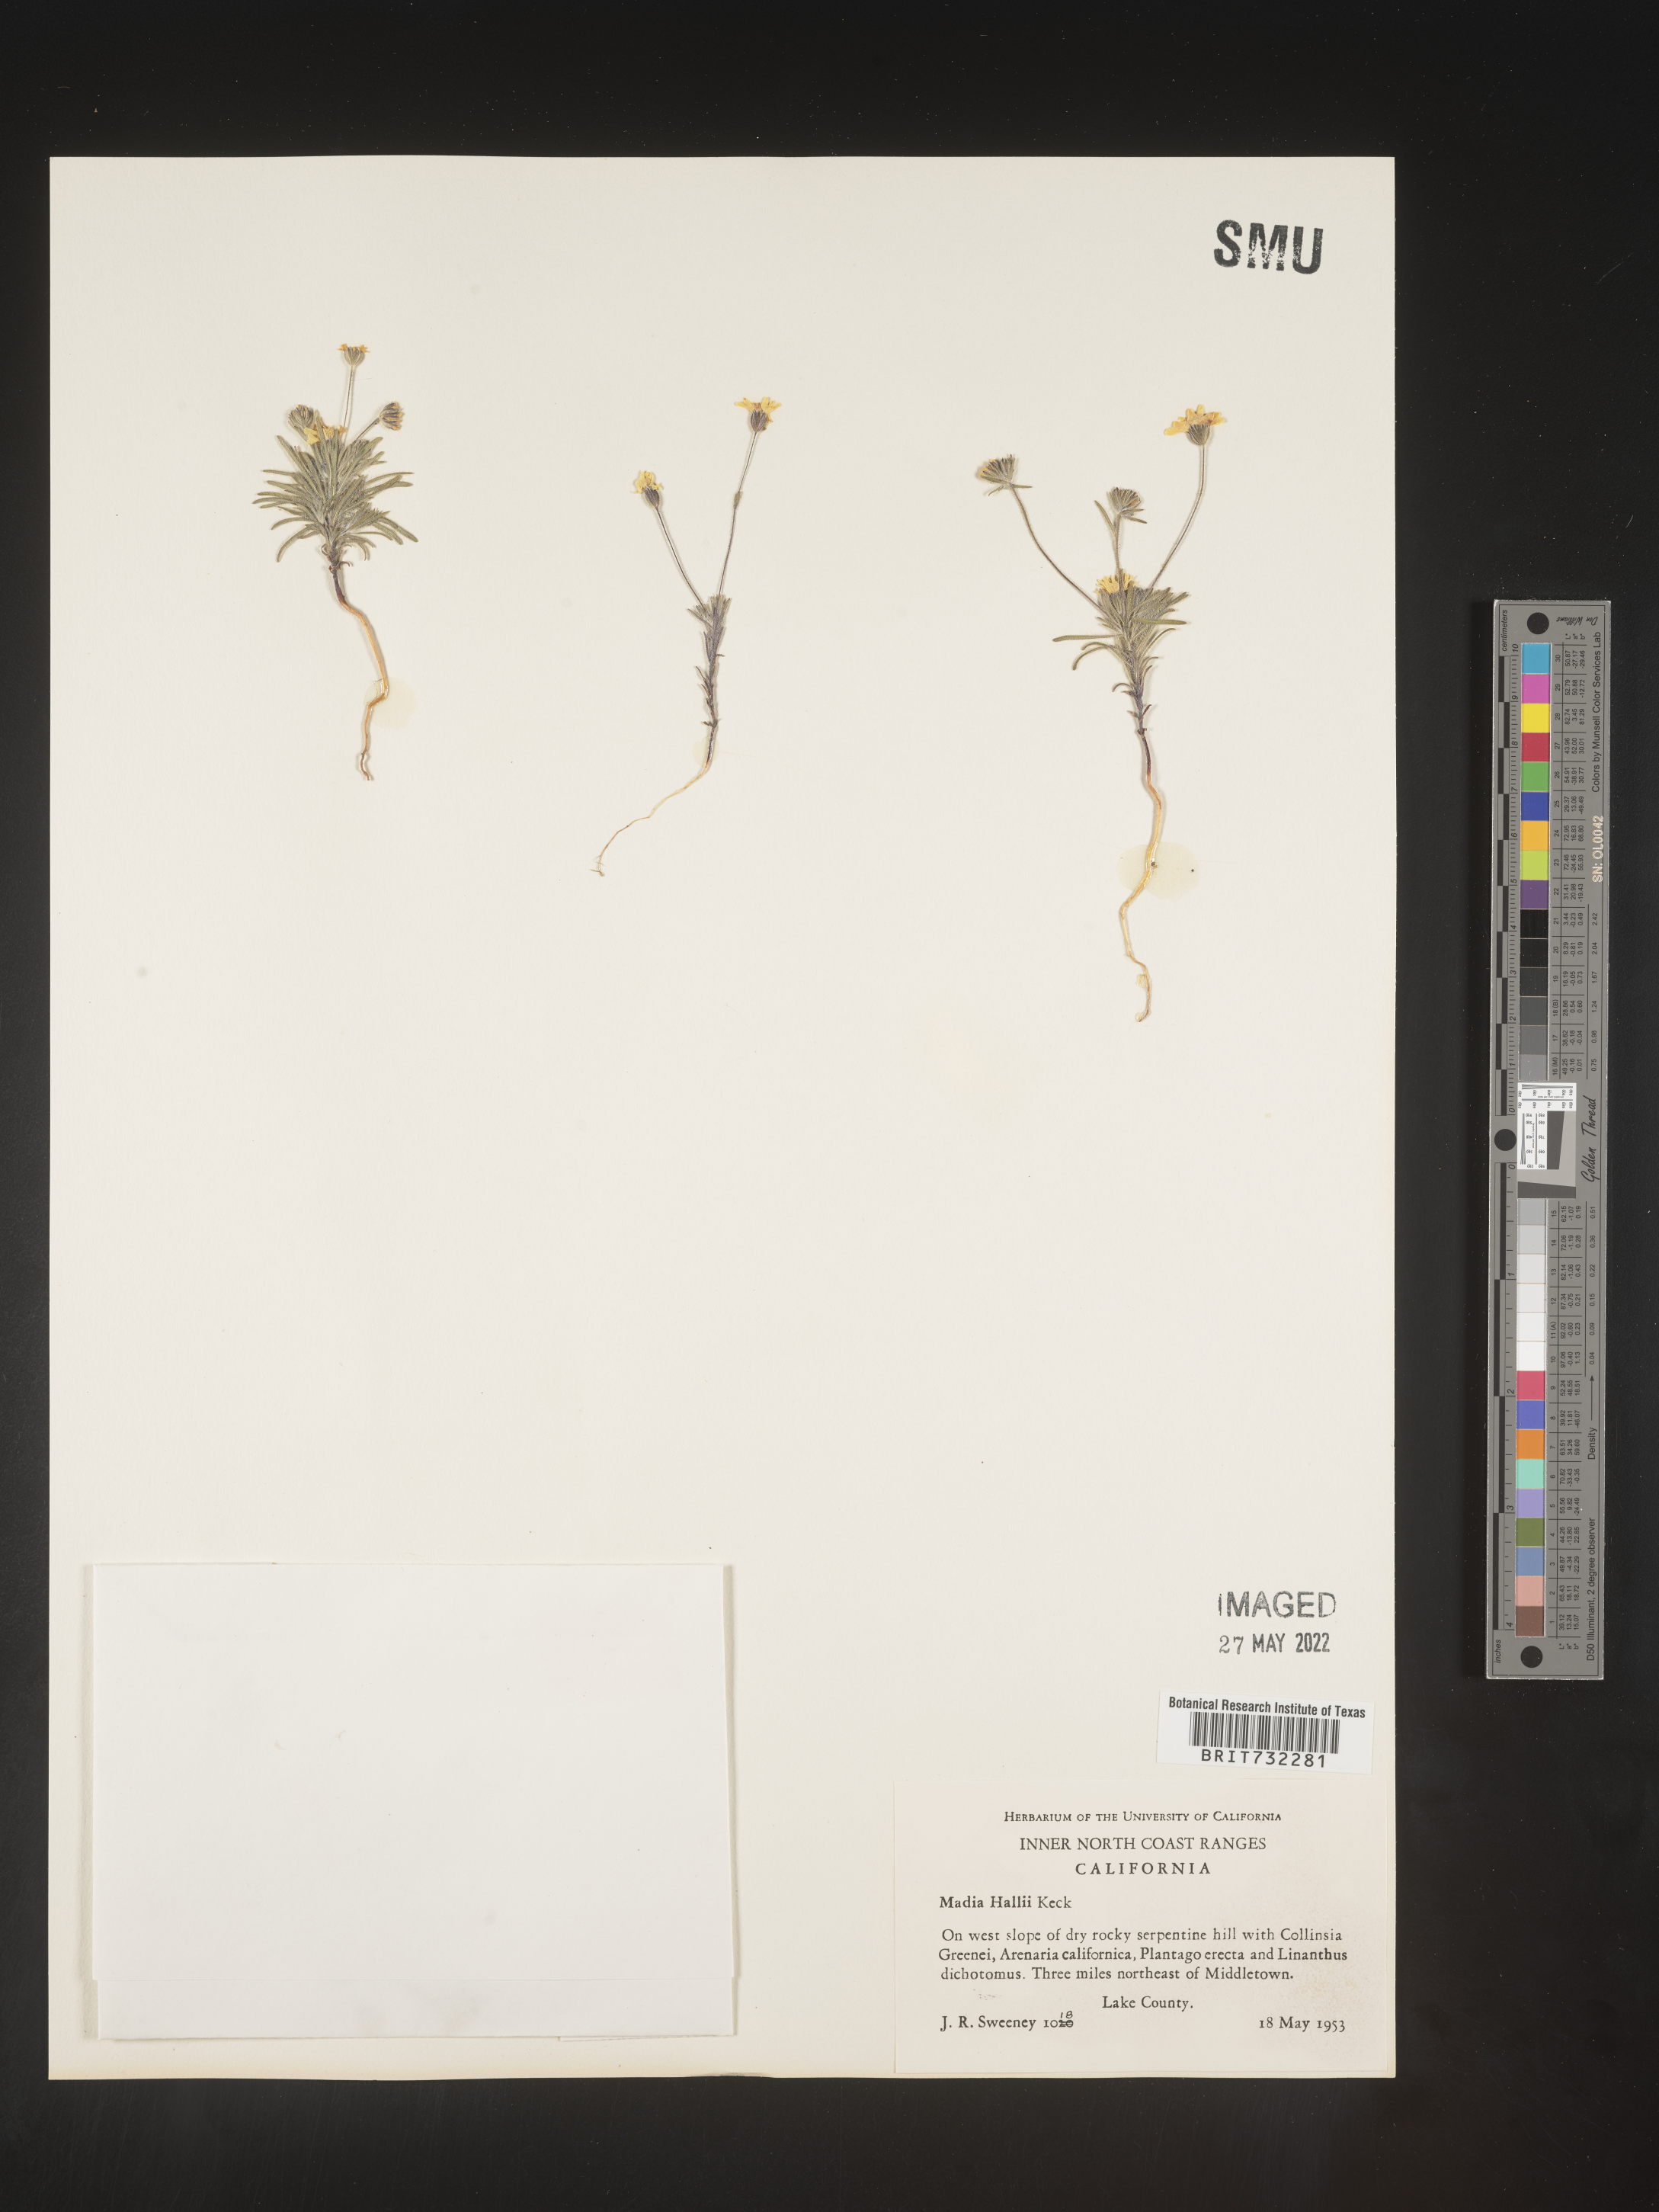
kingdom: Plantae
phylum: Tracheophyta
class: Magnoliopsida
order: Asterales
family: Asteraceae
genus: Madia
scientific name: Madia
